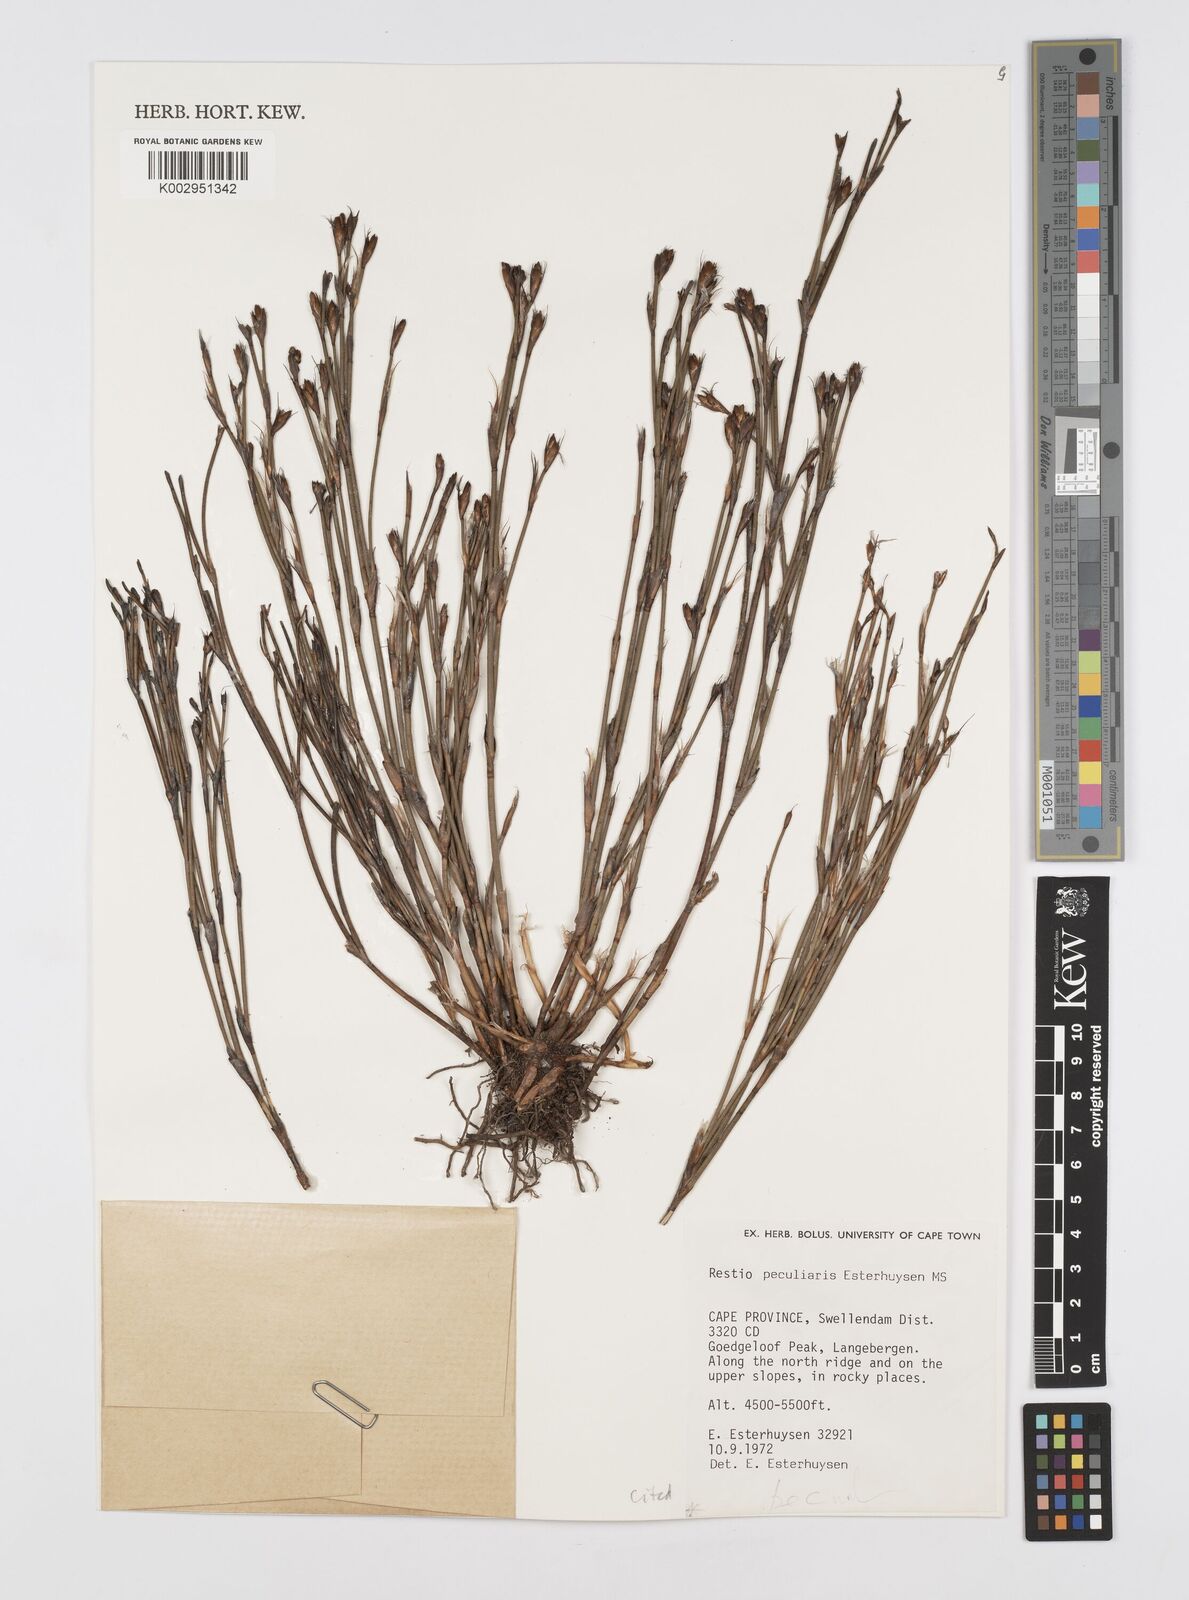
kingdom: Plantae
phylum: Tracheophyta
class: Liliopsida
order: Poales
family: Restionaceae
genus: Restio
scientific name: Restio peculiaris
